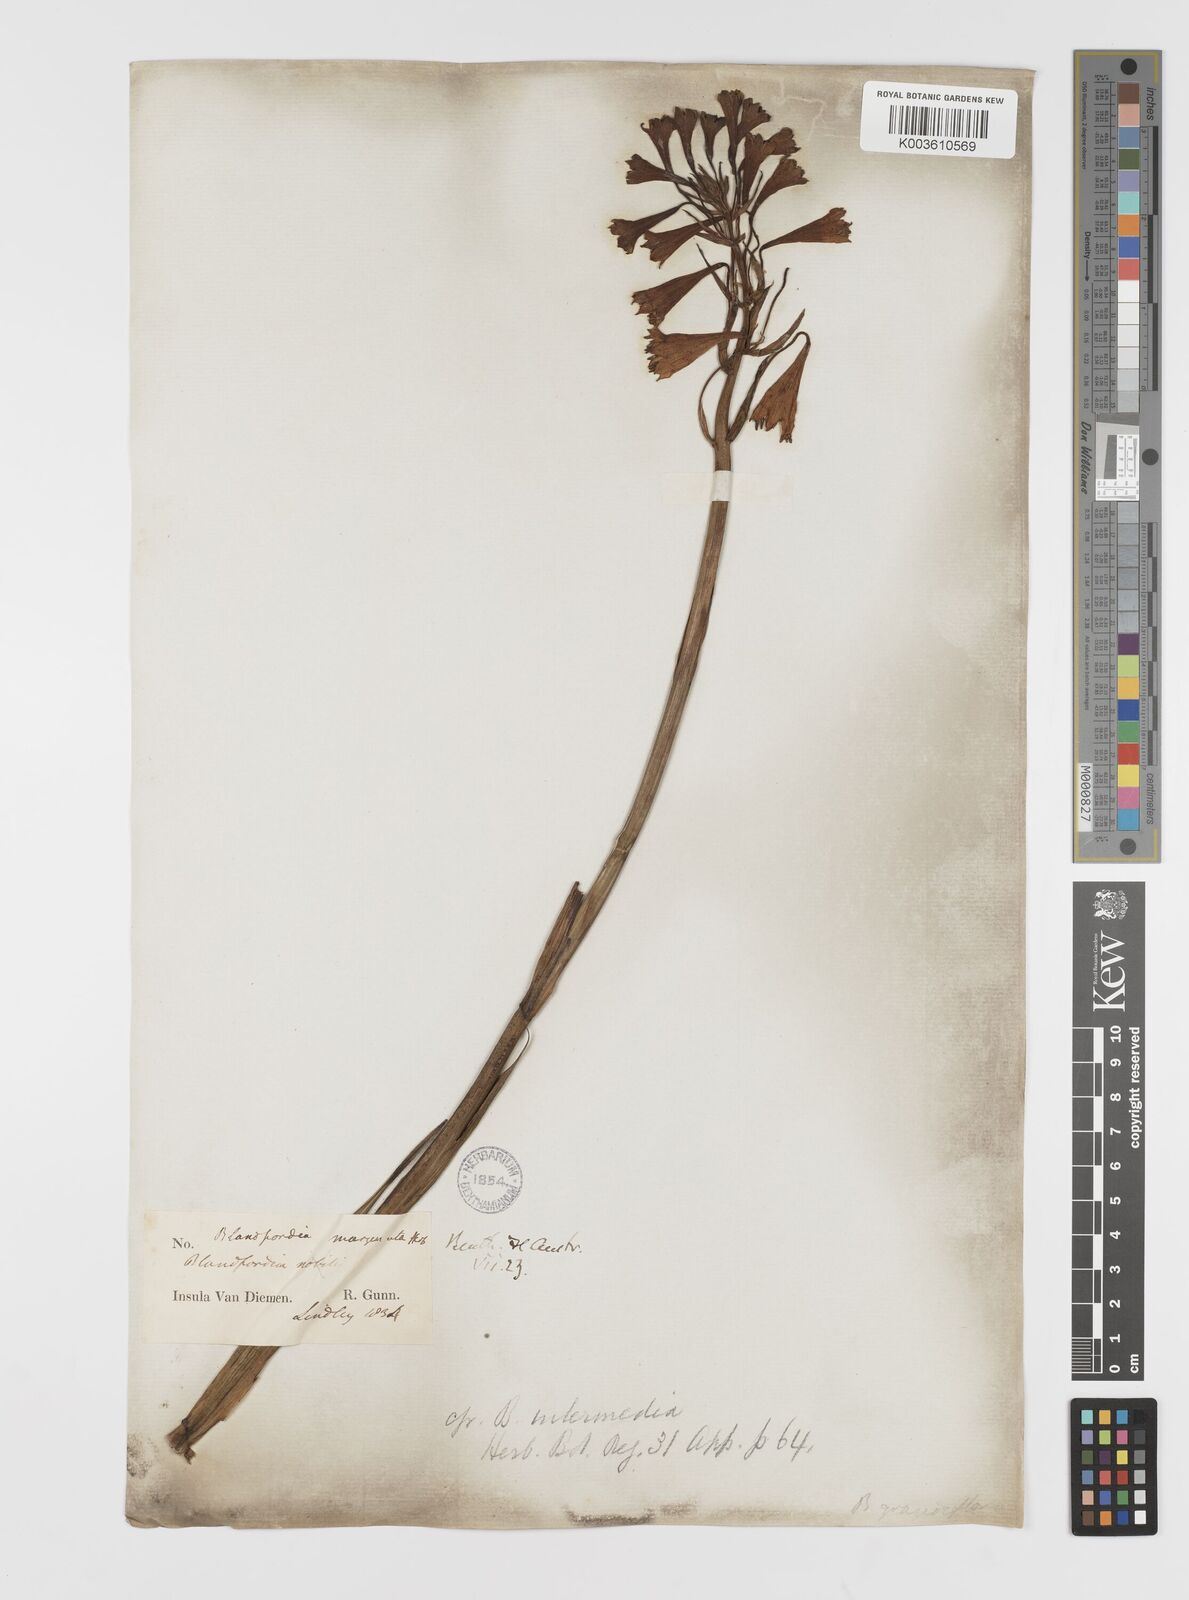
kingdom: Plantae
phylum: Tracheophyta
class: Liliopsida
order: Asparagales
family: Blandfordiaceae
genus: Blandfordia
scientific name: Blandfordia punicea
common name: Tasmanian christmas-bell
